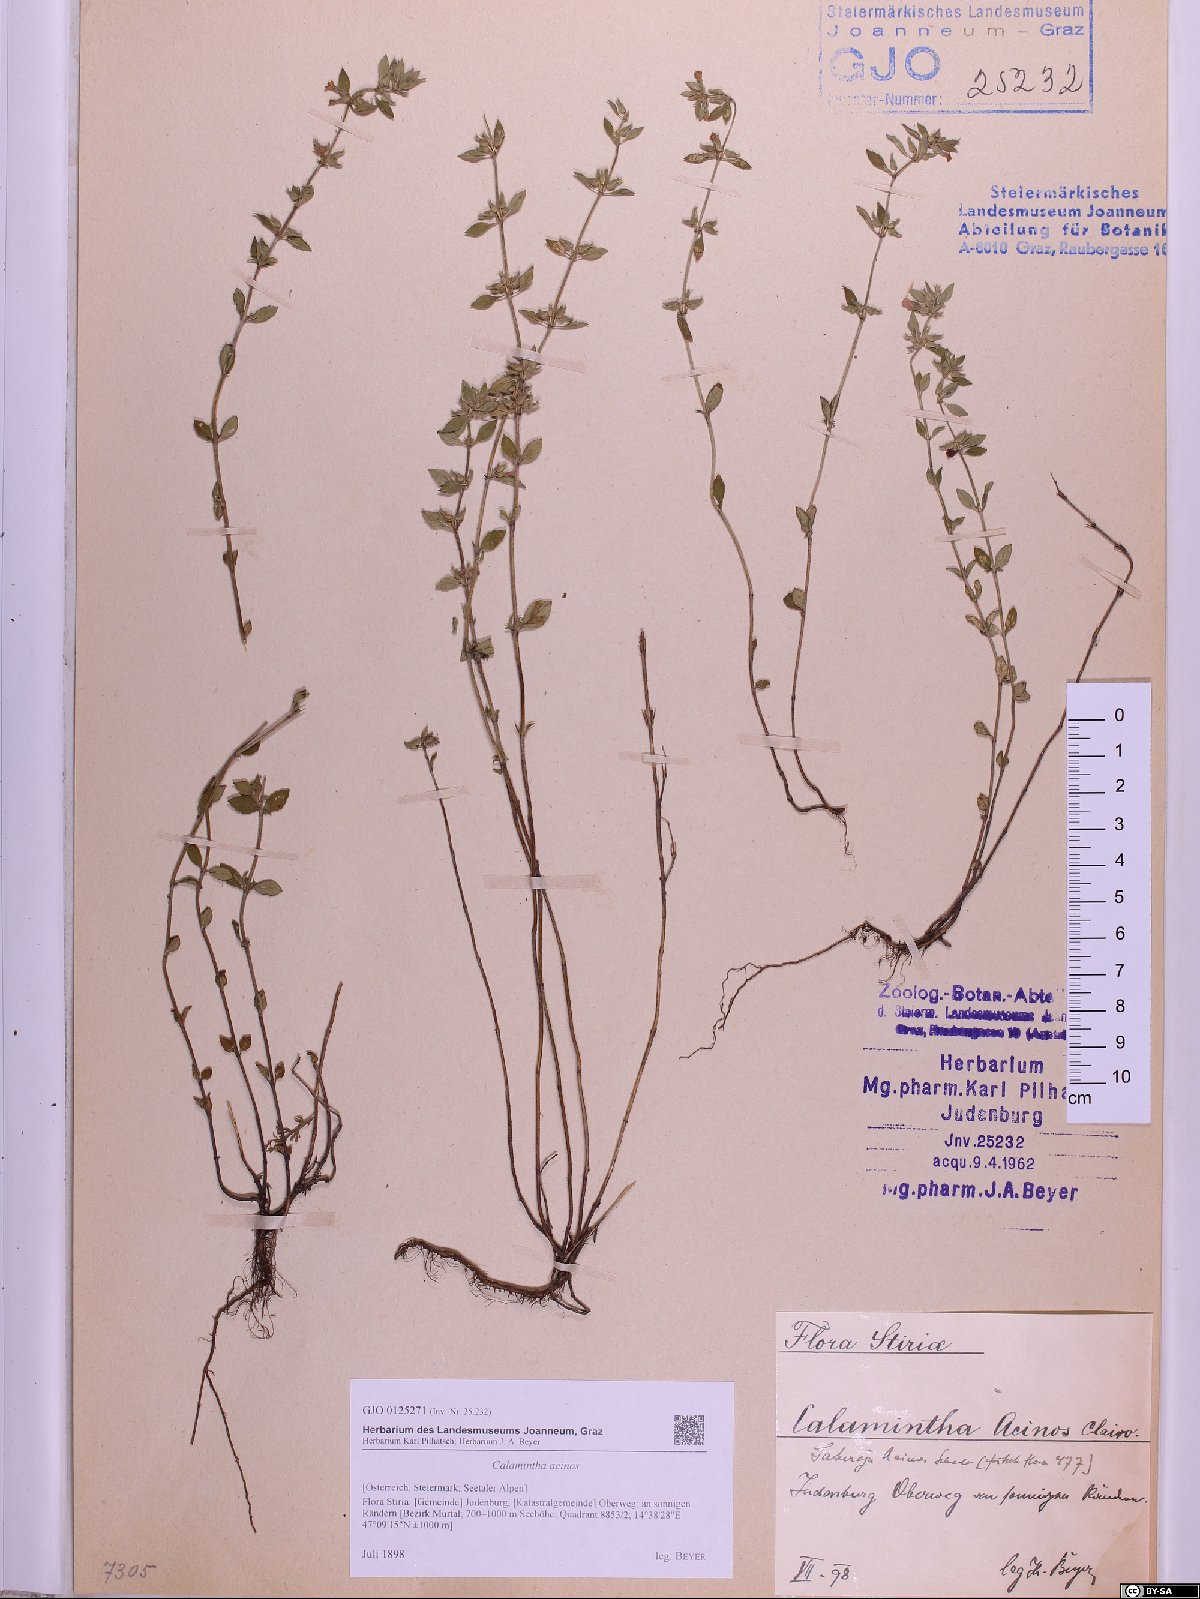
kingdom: Plantae
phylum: Tracheophyta
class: Magnoliopsida
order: Lamiales
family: Lamiaceae
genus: Clinopodium
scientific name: Clinopodium acinos
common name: Basil thyme
